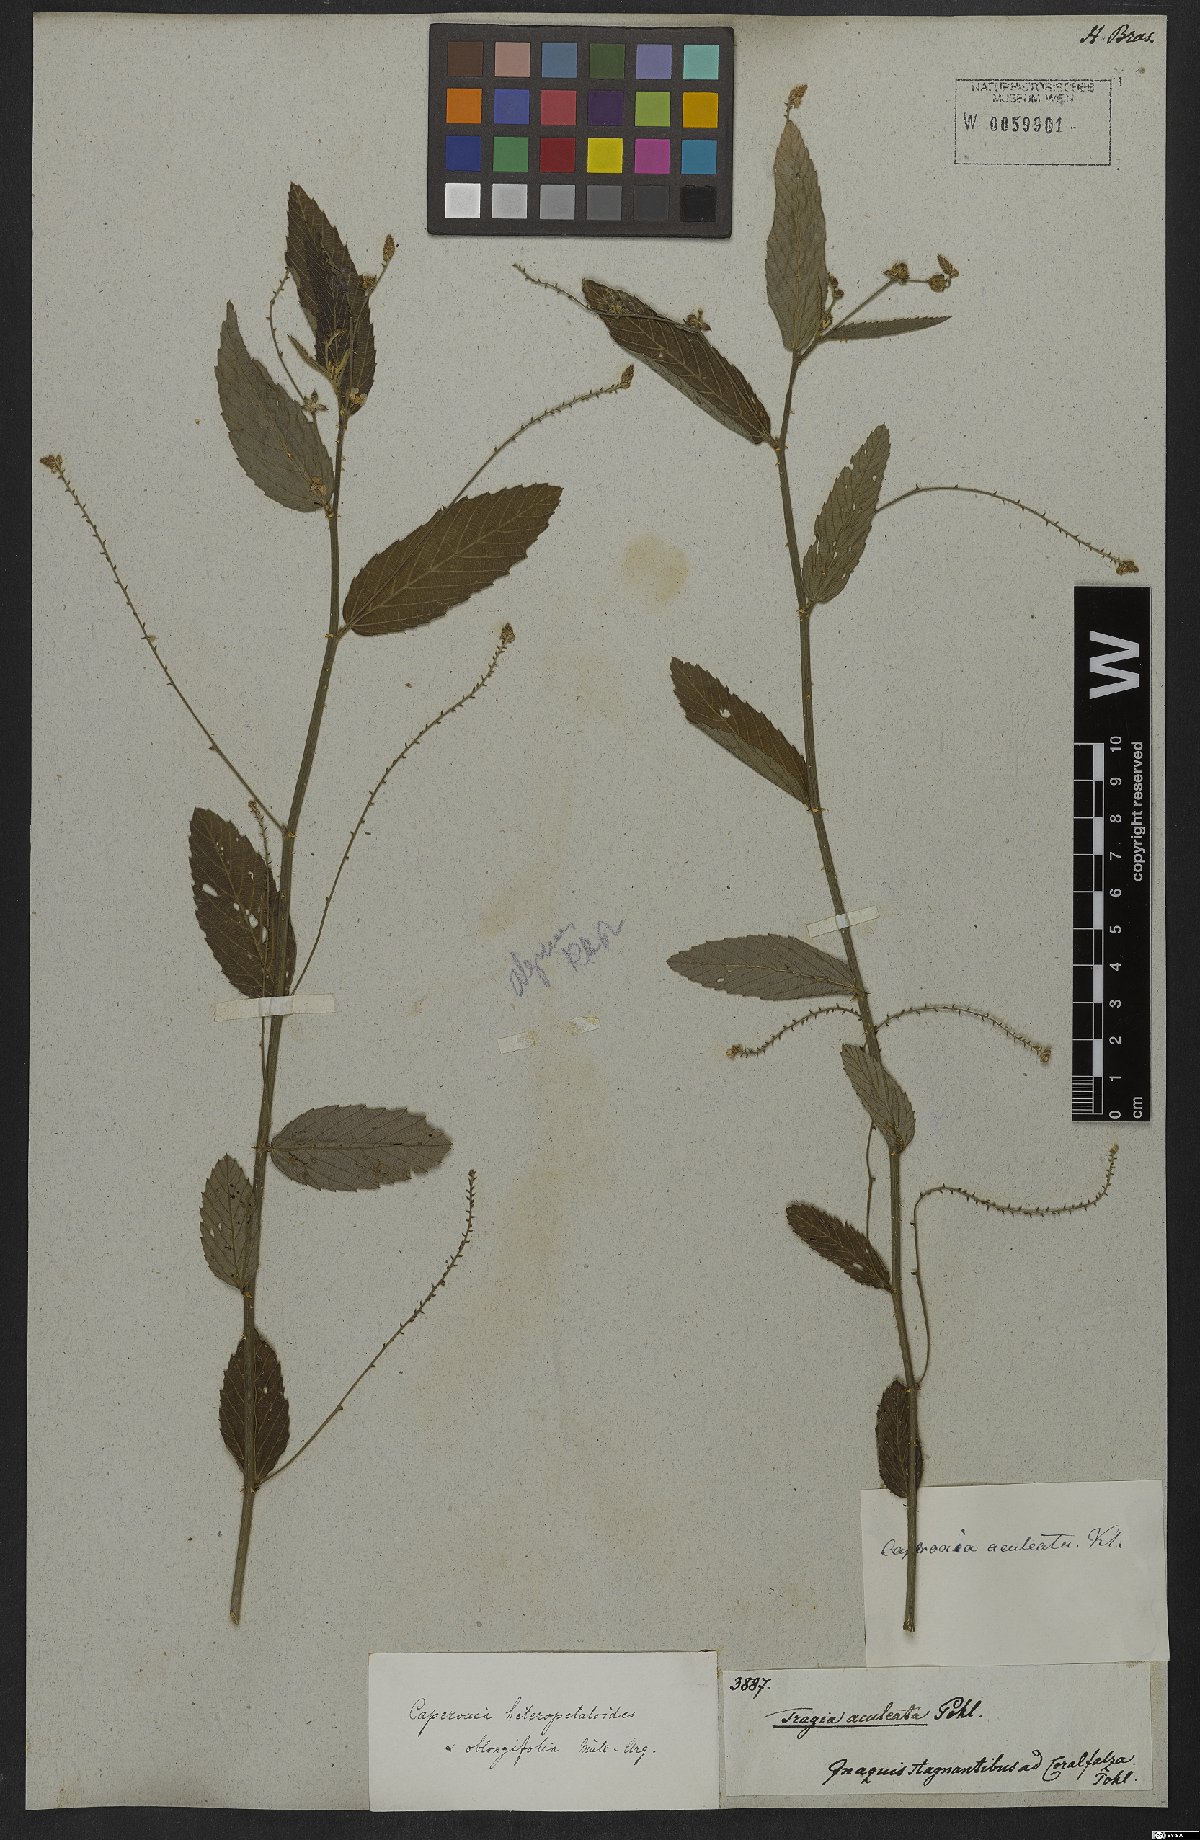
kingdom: Plantae
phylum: Tracheophyta
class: Magnoliopsida
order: Malpighiales
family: Euphorbiaceae
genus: Caperonia
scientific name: Caperonia heteropetala
